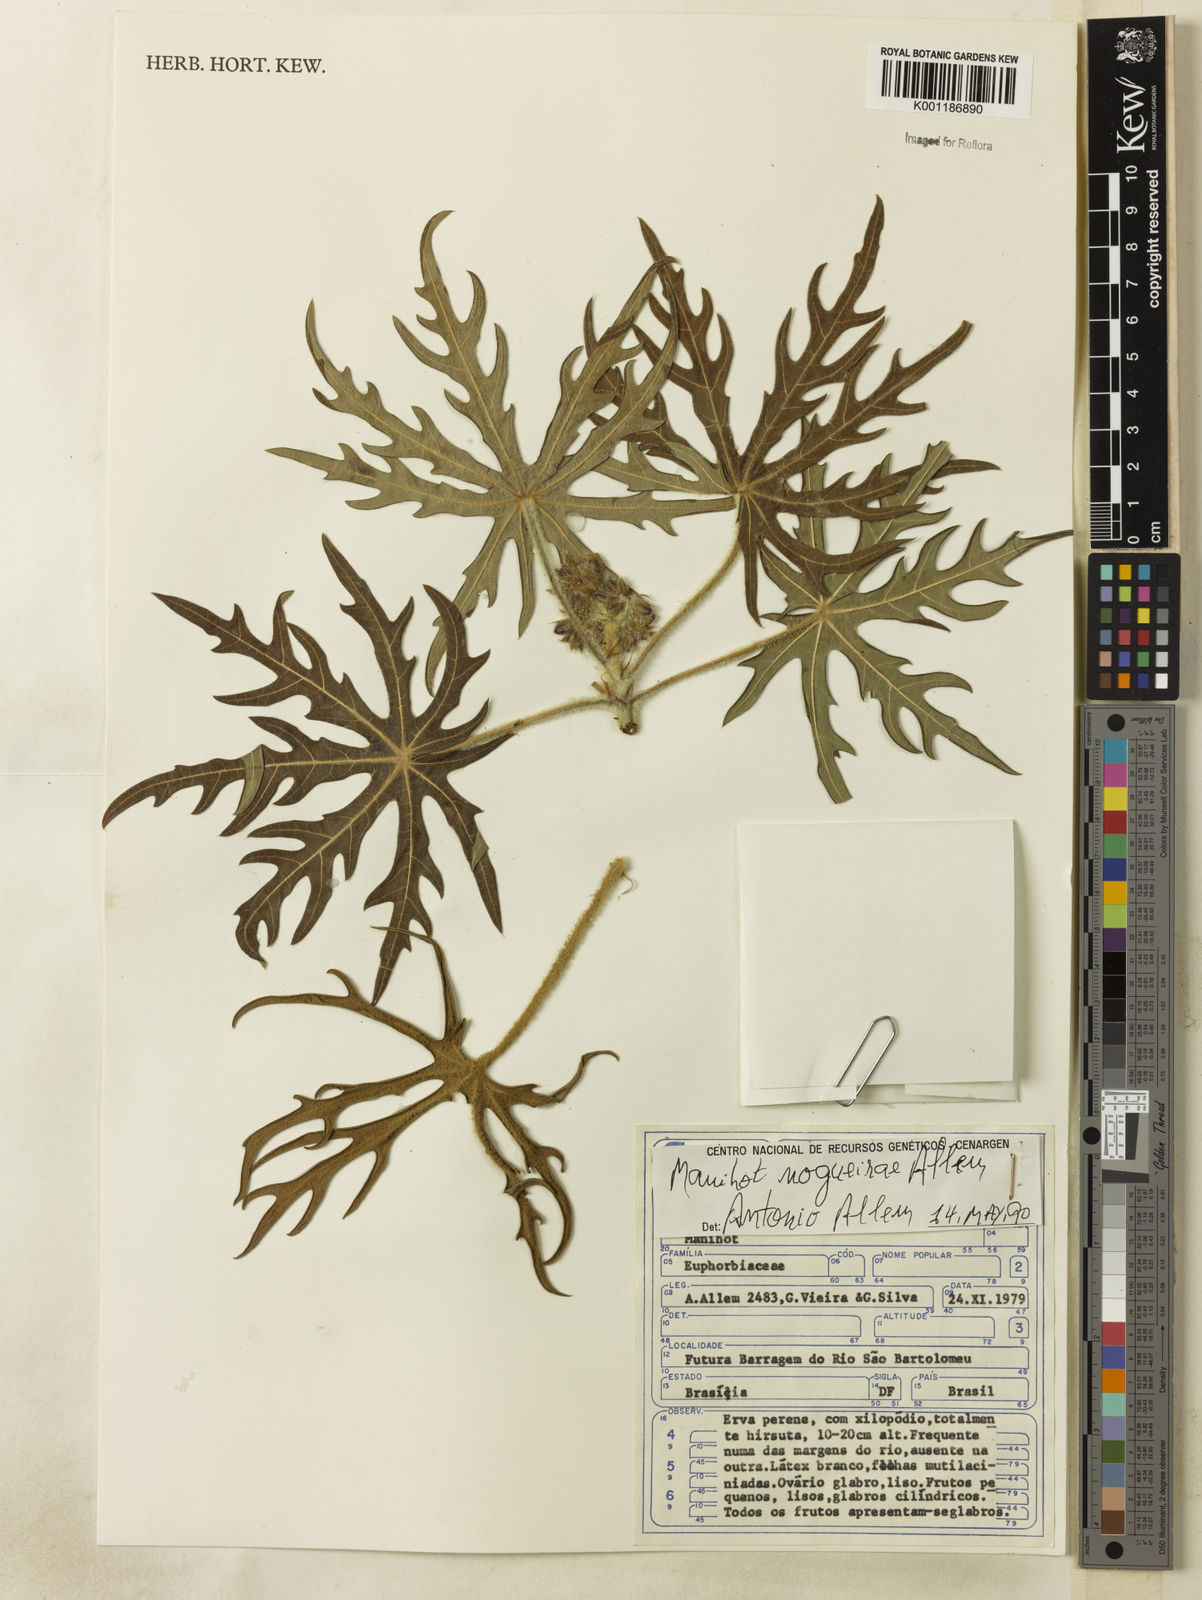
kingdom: Plantae
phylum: Tracheophyta
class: Magnoliopsida
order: Malpighiales
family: Euphorbiaceae
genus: Manihot
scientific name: Manihot nogueirae
